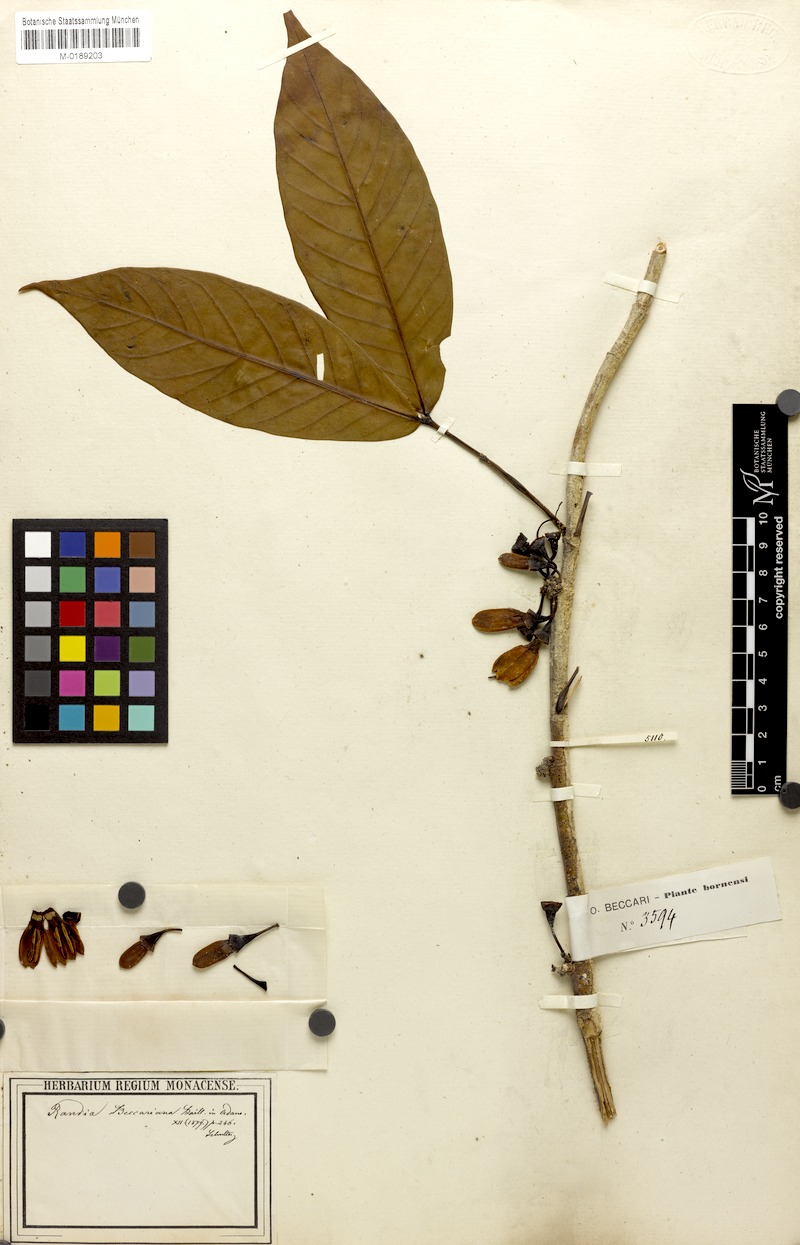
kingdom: Plantae
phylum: Tracheophyta
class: Magnoliopsida
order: Gentianales
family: Rubiaceae
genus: Aidia
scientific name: Aidia beccariana
